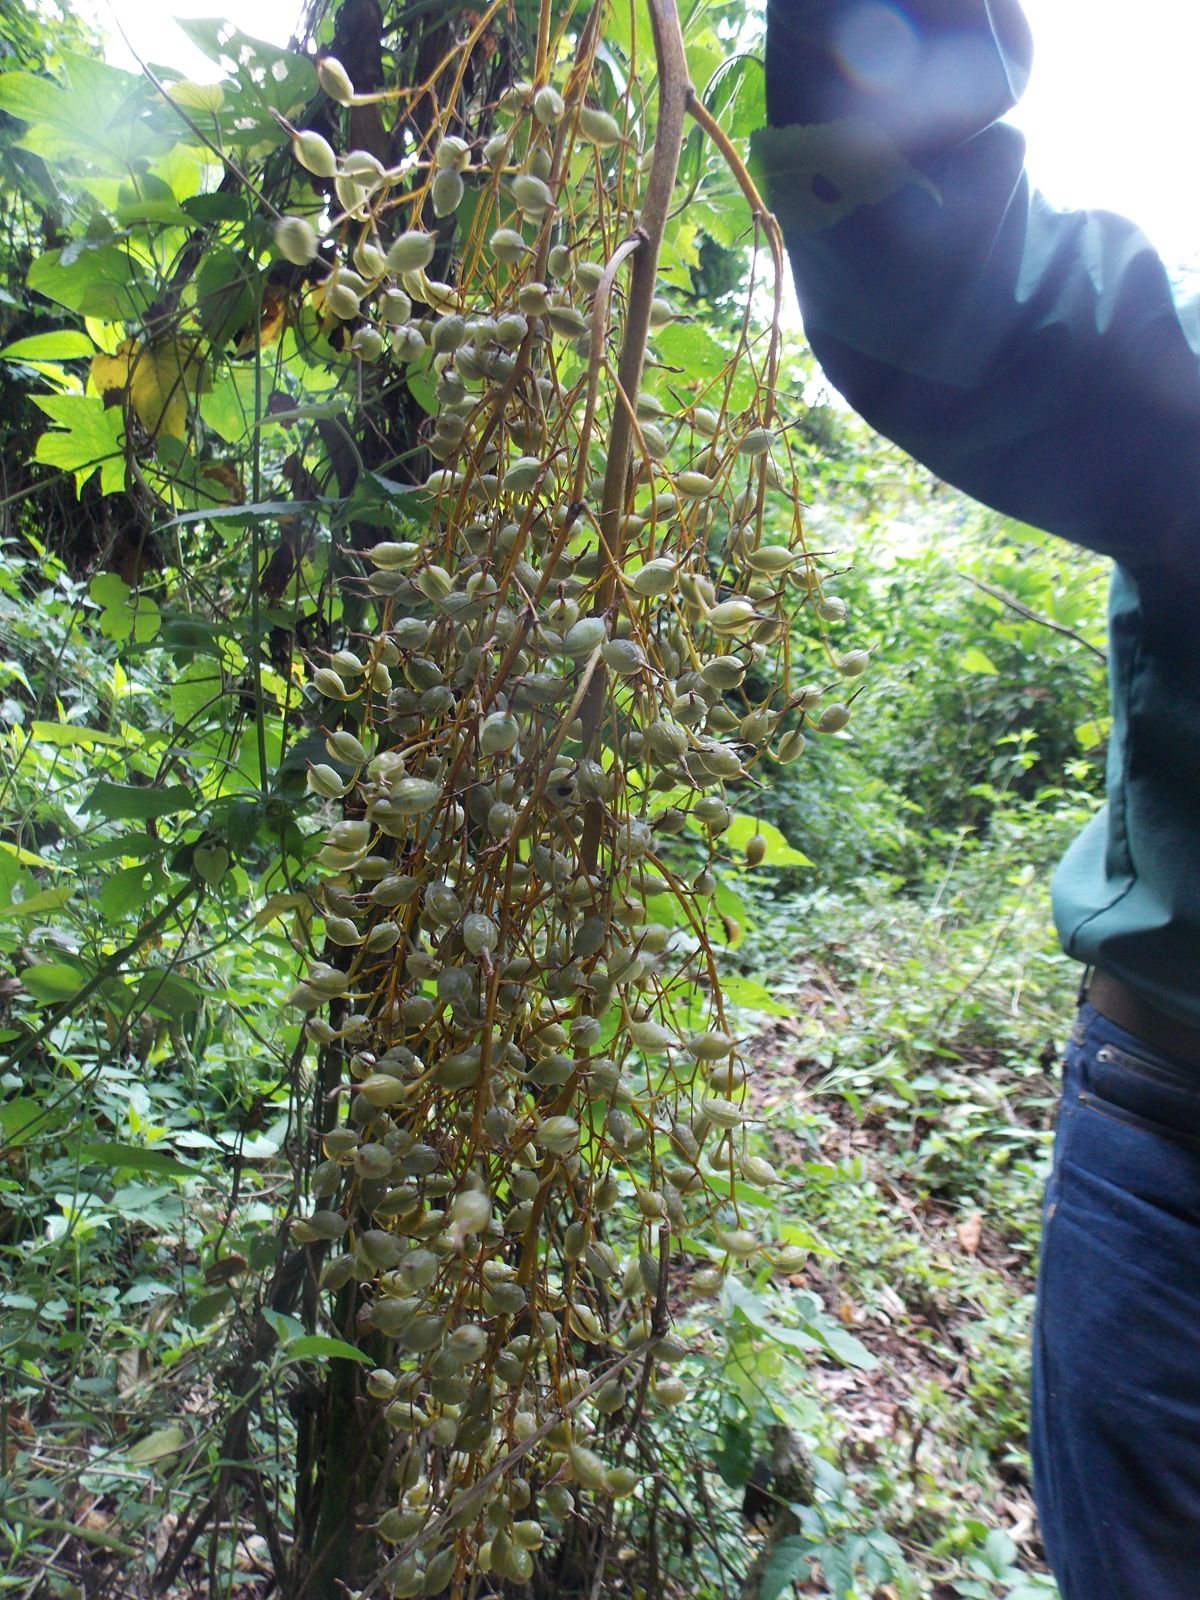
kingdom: Plantae
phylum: Tracheophyta
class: Magnoliopsida
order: Ranunculales
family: Papaveraceae
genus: Bocconia
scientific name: Bocconia frutescens
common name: Tree poppy
